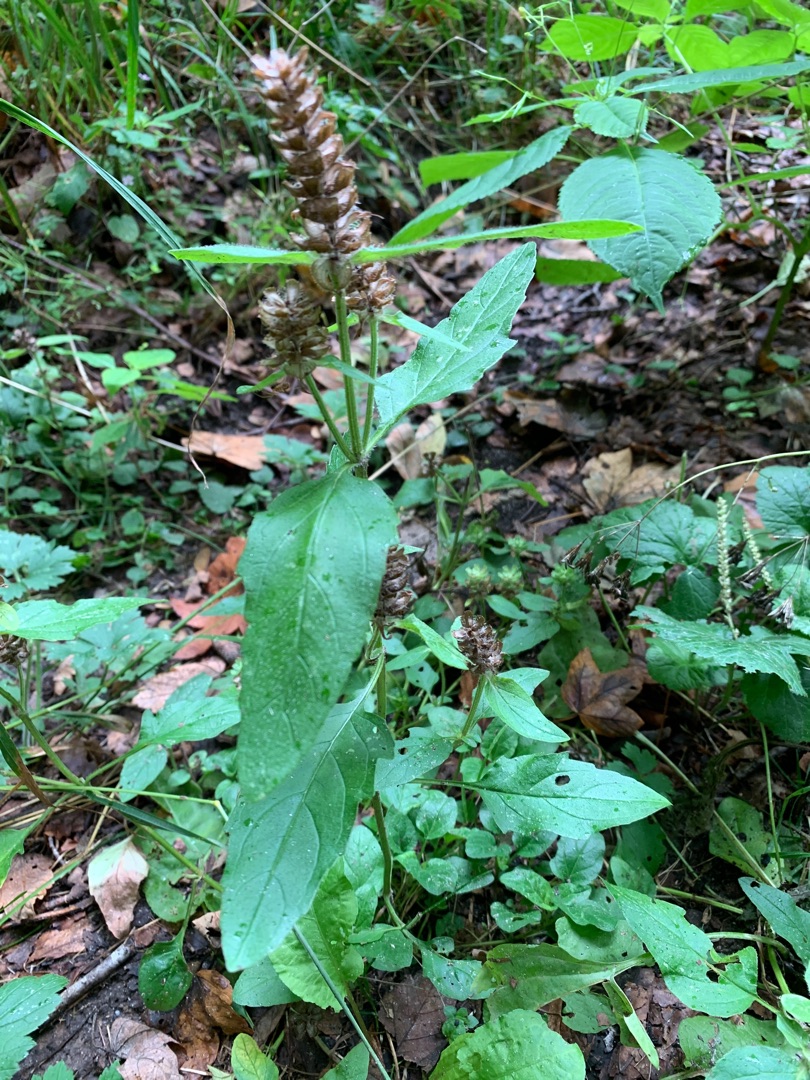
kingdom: Plantae
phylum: Tracheophyta
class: Magnoliopsida
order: Lamiales
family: Lamiaceae
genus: Prunella
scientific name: Prunella vulgaris
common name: Almindelig brunelle
